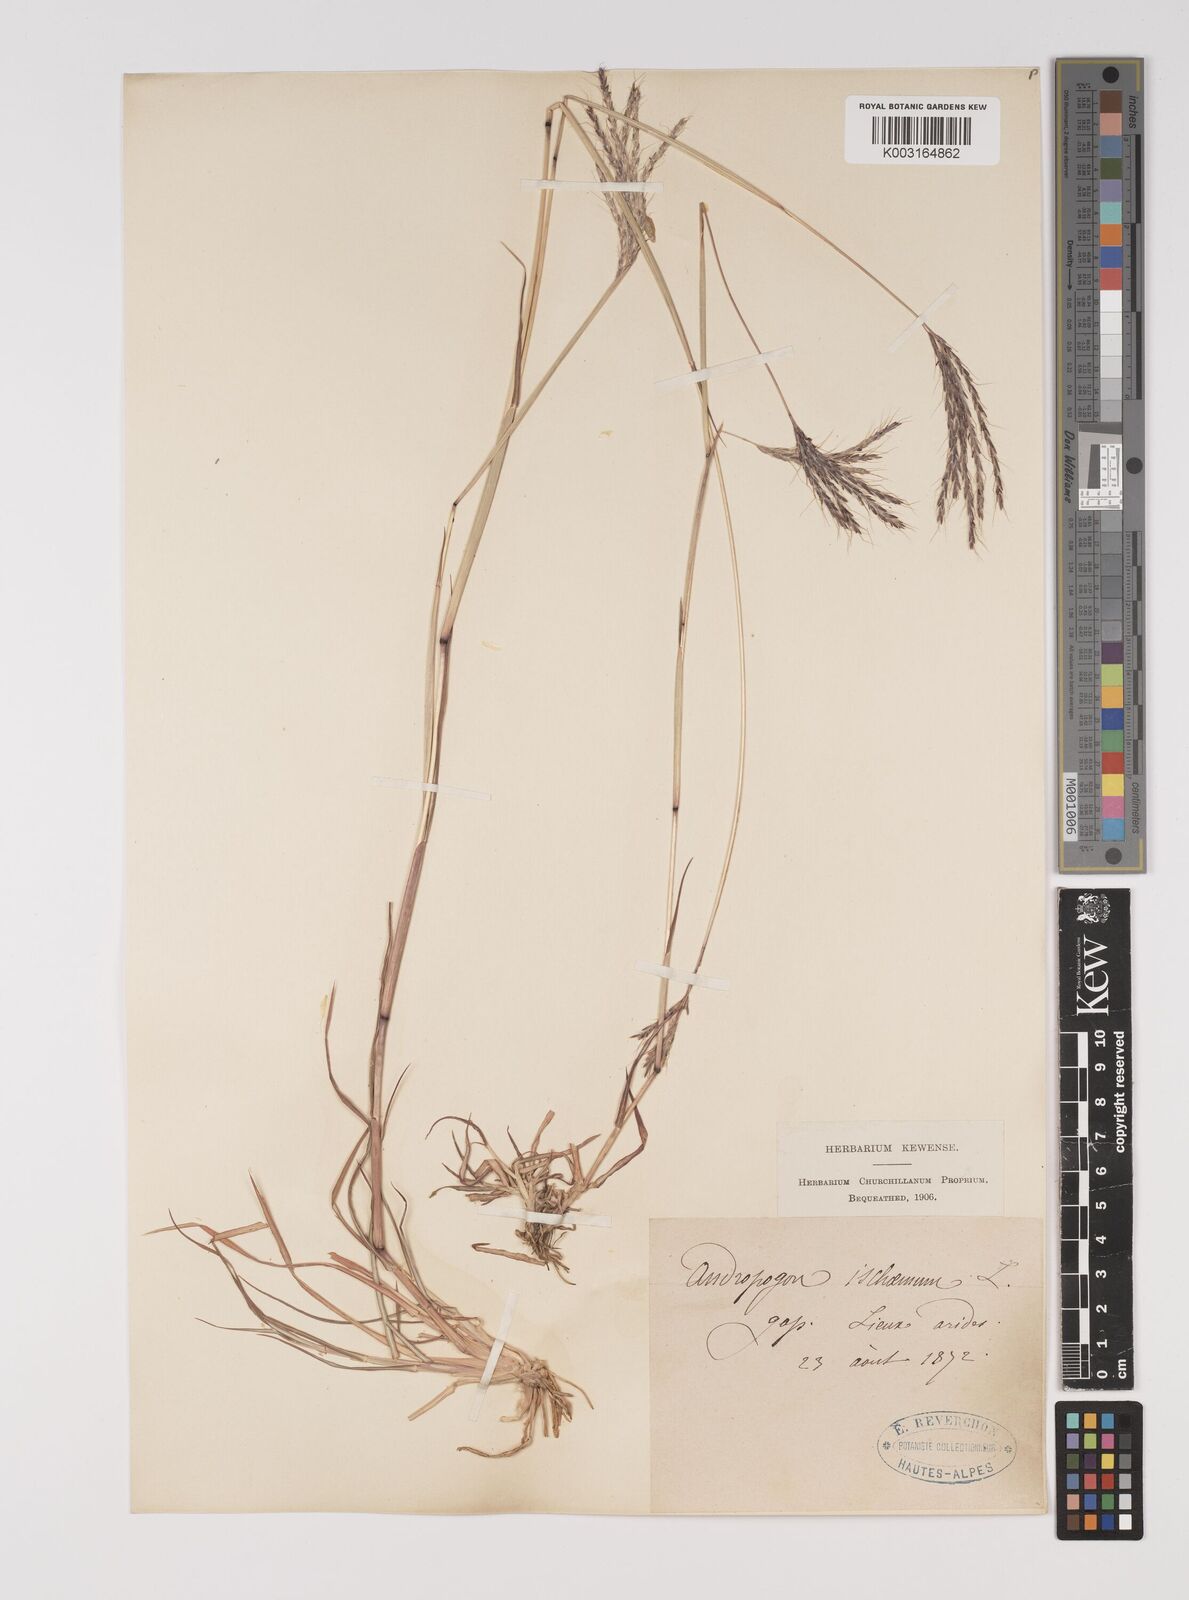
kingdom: Plantae
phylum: Tracheophyta
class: Liliopsida
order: Poales
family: Poaceae
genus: Bothriochloa
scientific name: Bothriochloa ischaemum
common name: Yellow bluestem
